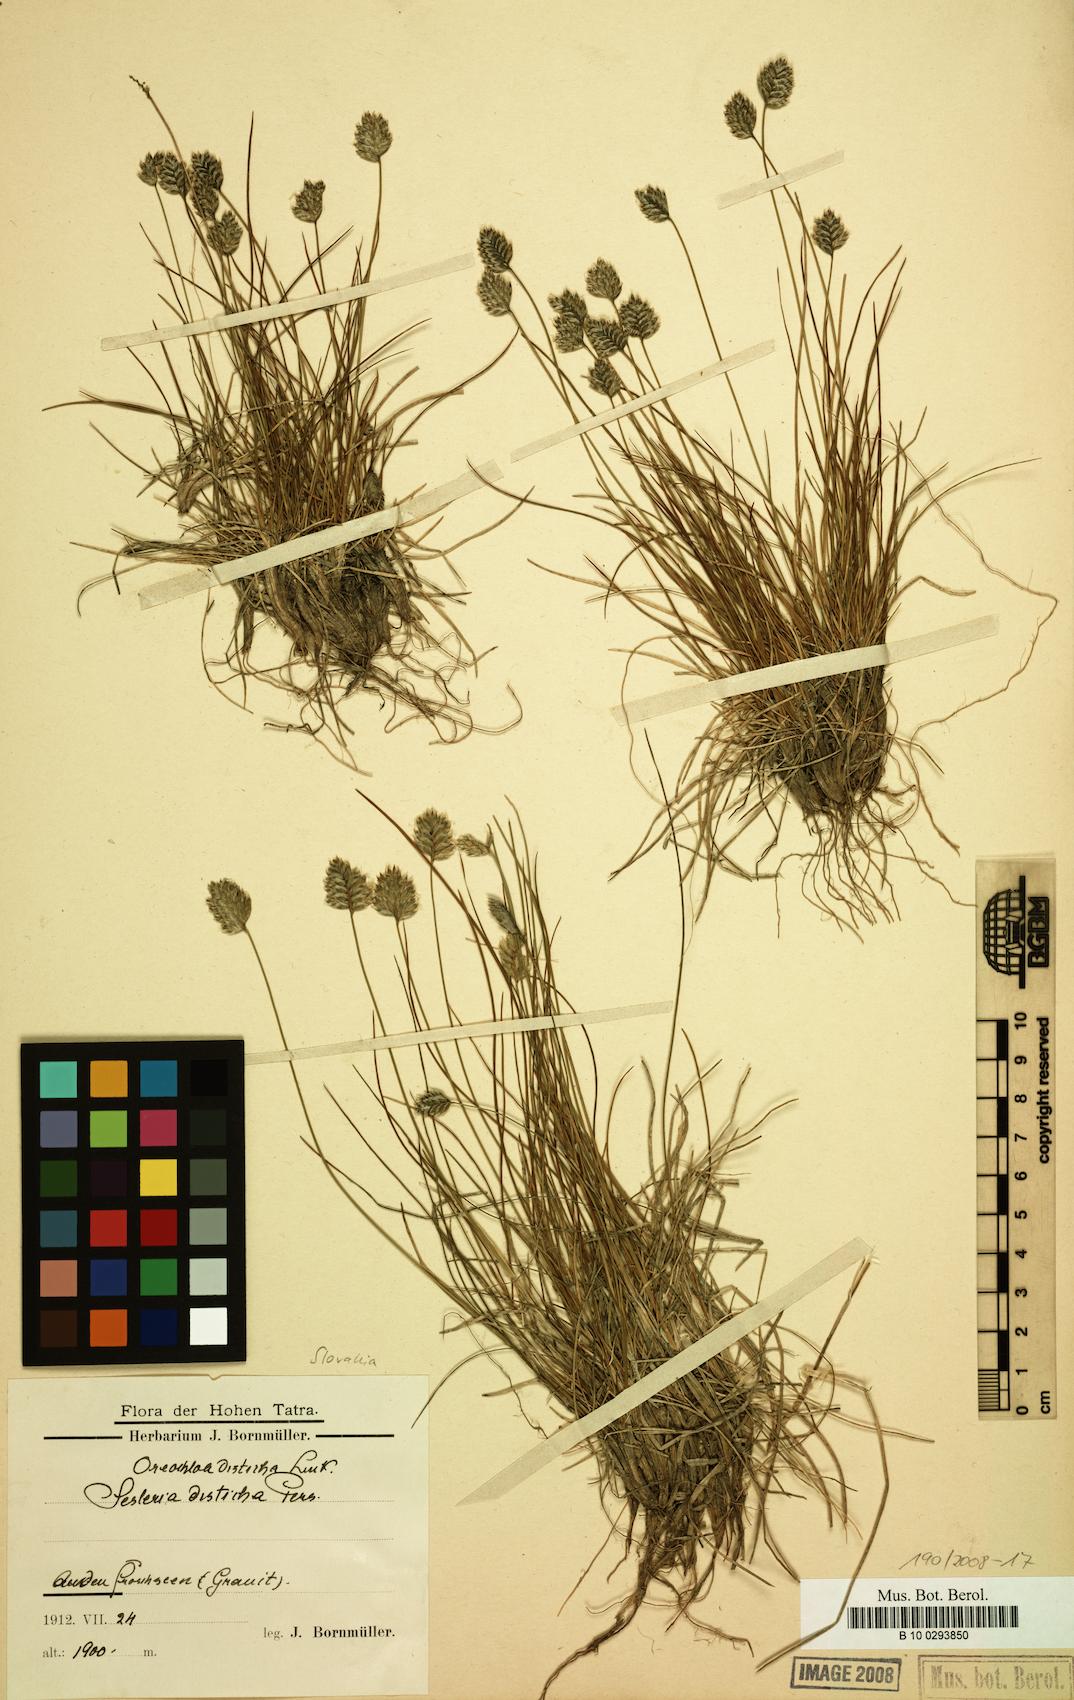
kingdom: Plantae
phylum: Tracheophyta
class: Liliopsida
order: Poales
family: Poaceae
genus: Oreochloa
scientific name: Oreochloa disticha
